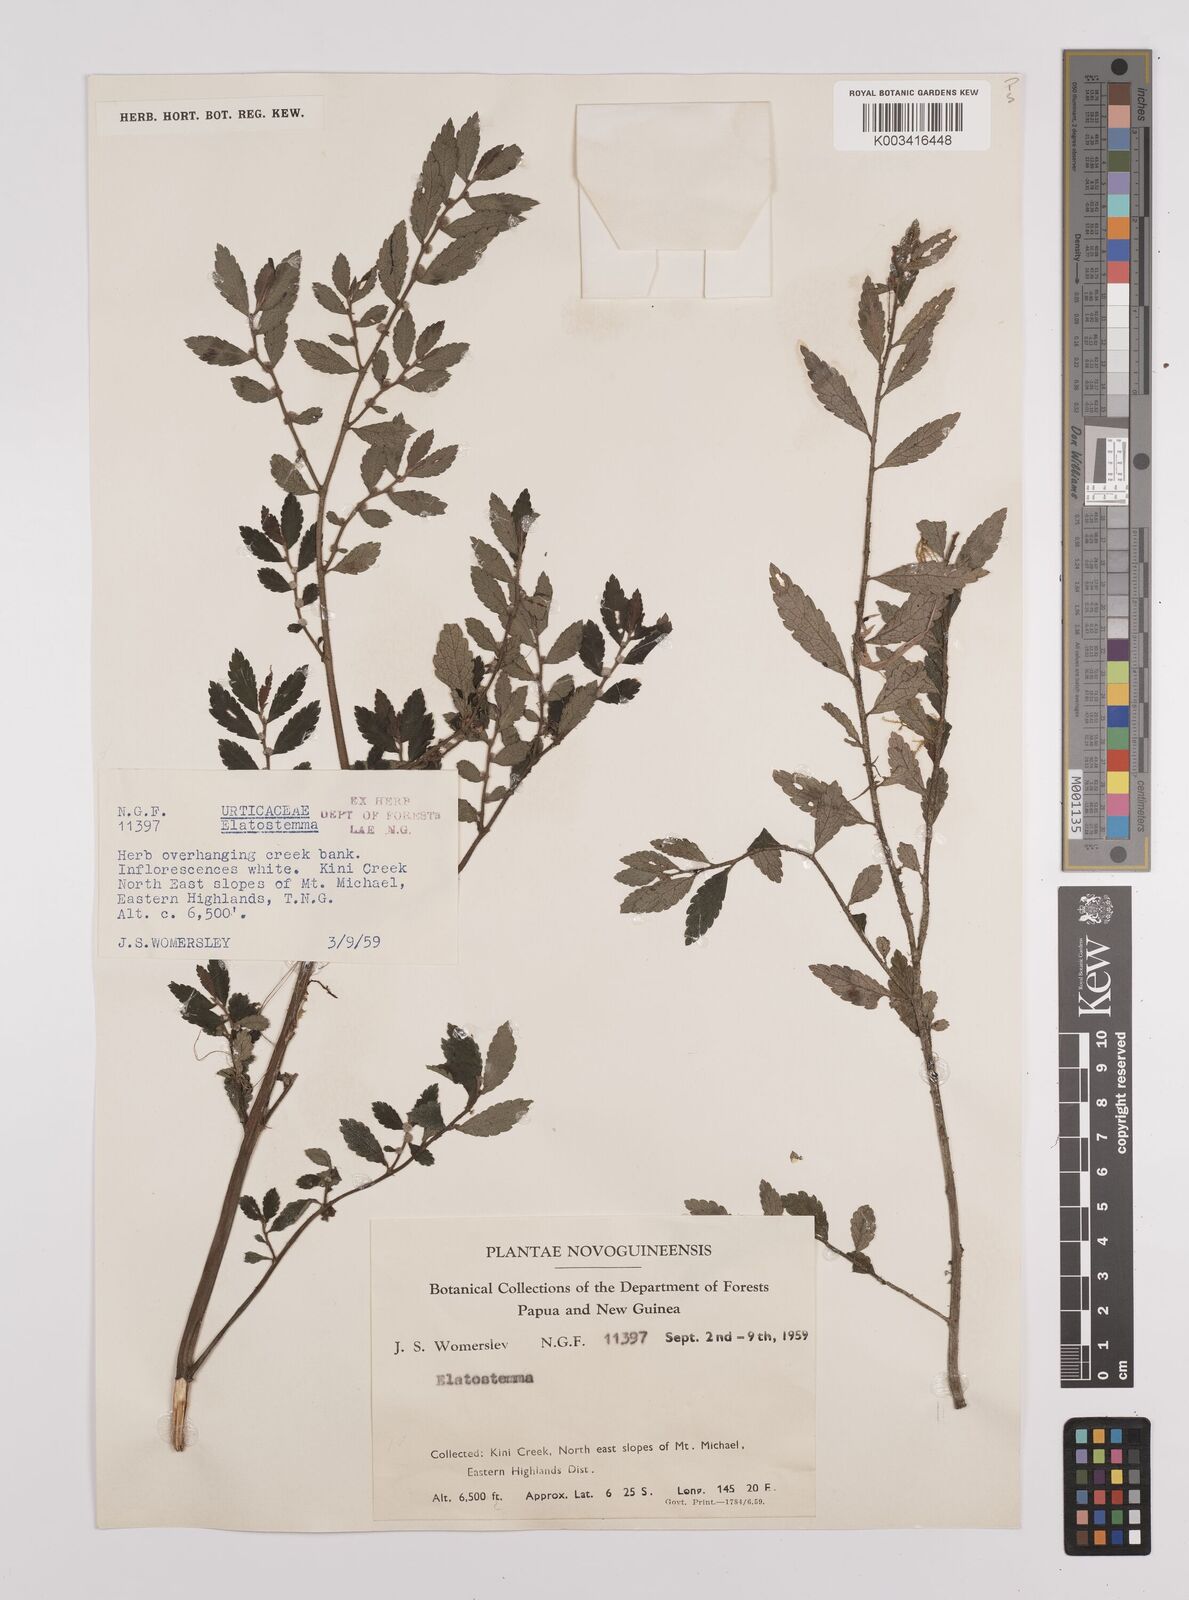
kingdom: Plantae
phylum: Tracheophyta
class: Magnoliopsida
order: Rosales
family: Urticaceae
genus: Elatostema
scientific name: Elatostema
